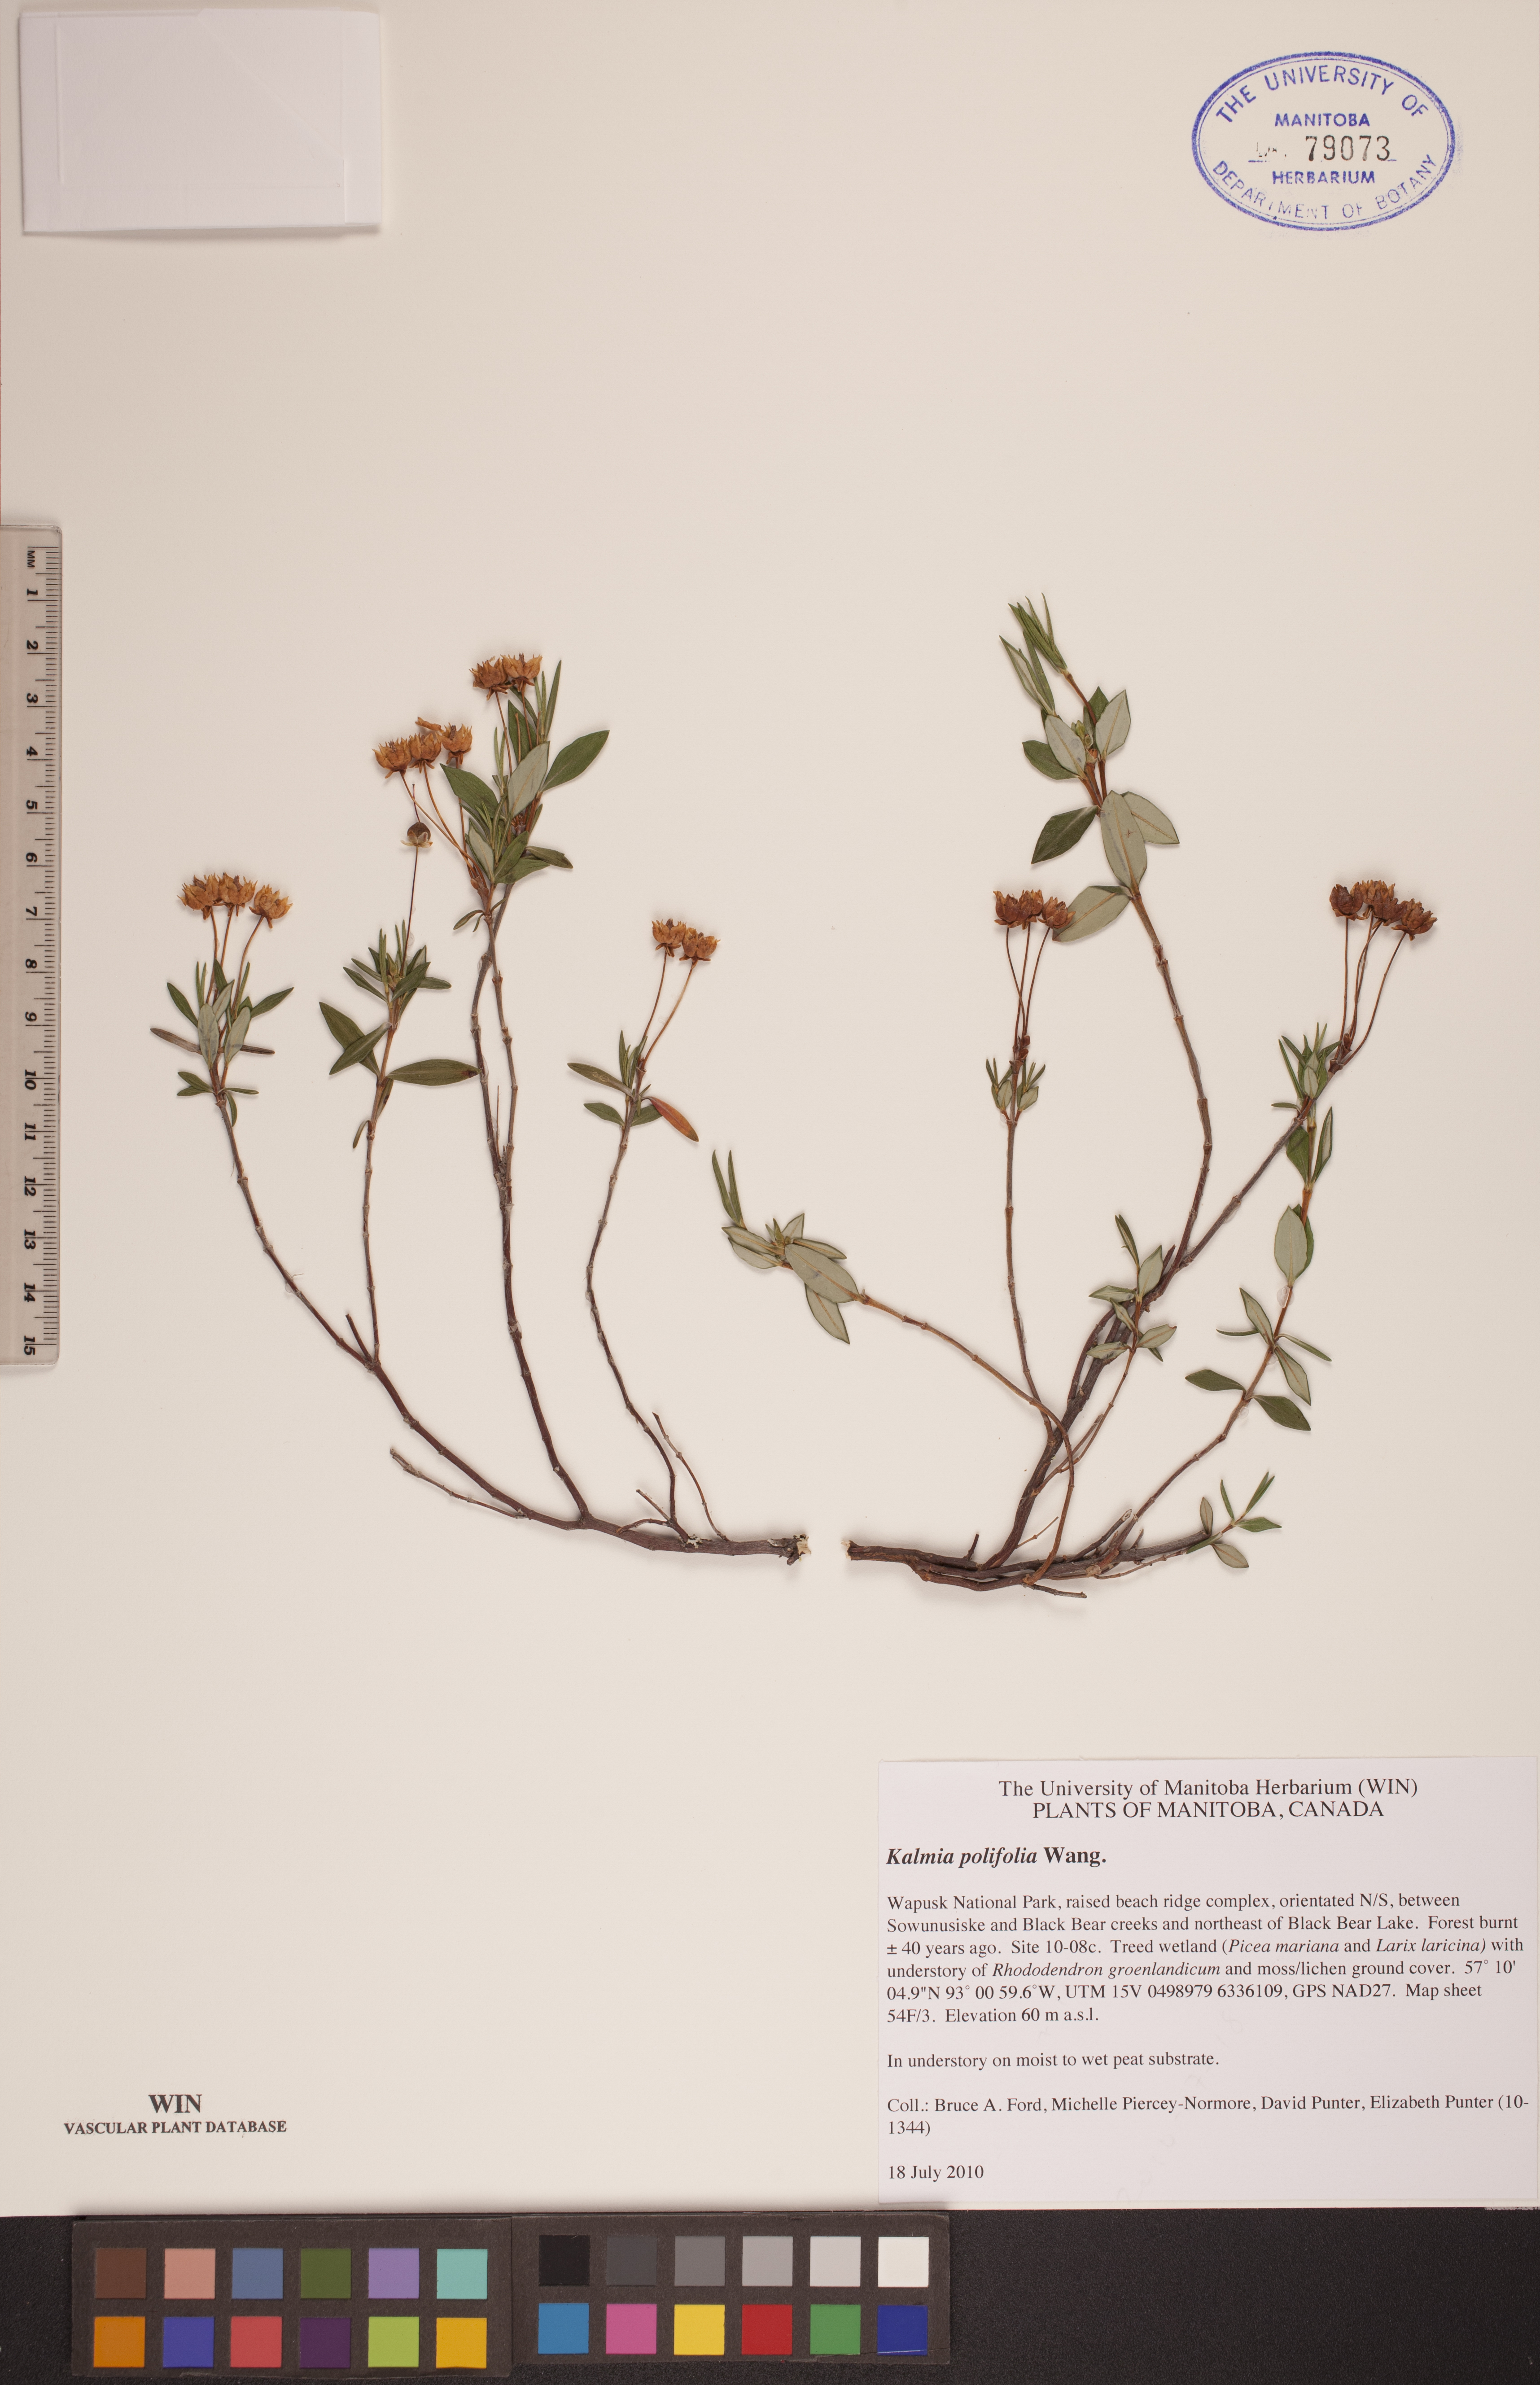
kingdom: Plantae
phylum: Tracheophyta
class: Magnoliopsida
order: Ericales
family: Ericaceae
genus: Kalmia
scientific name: Kalmia polifolia
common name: Bog-laurel
